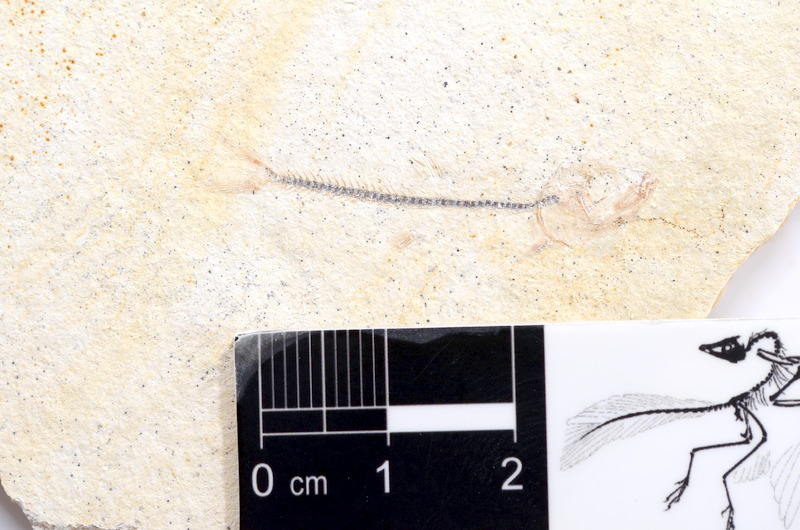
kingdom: Animalia
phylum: Chordata
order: Salmoniformes
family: Orthogonikleithridae
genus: Orthogonikleithrus
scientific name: Orthogonikleithrus hoelli
